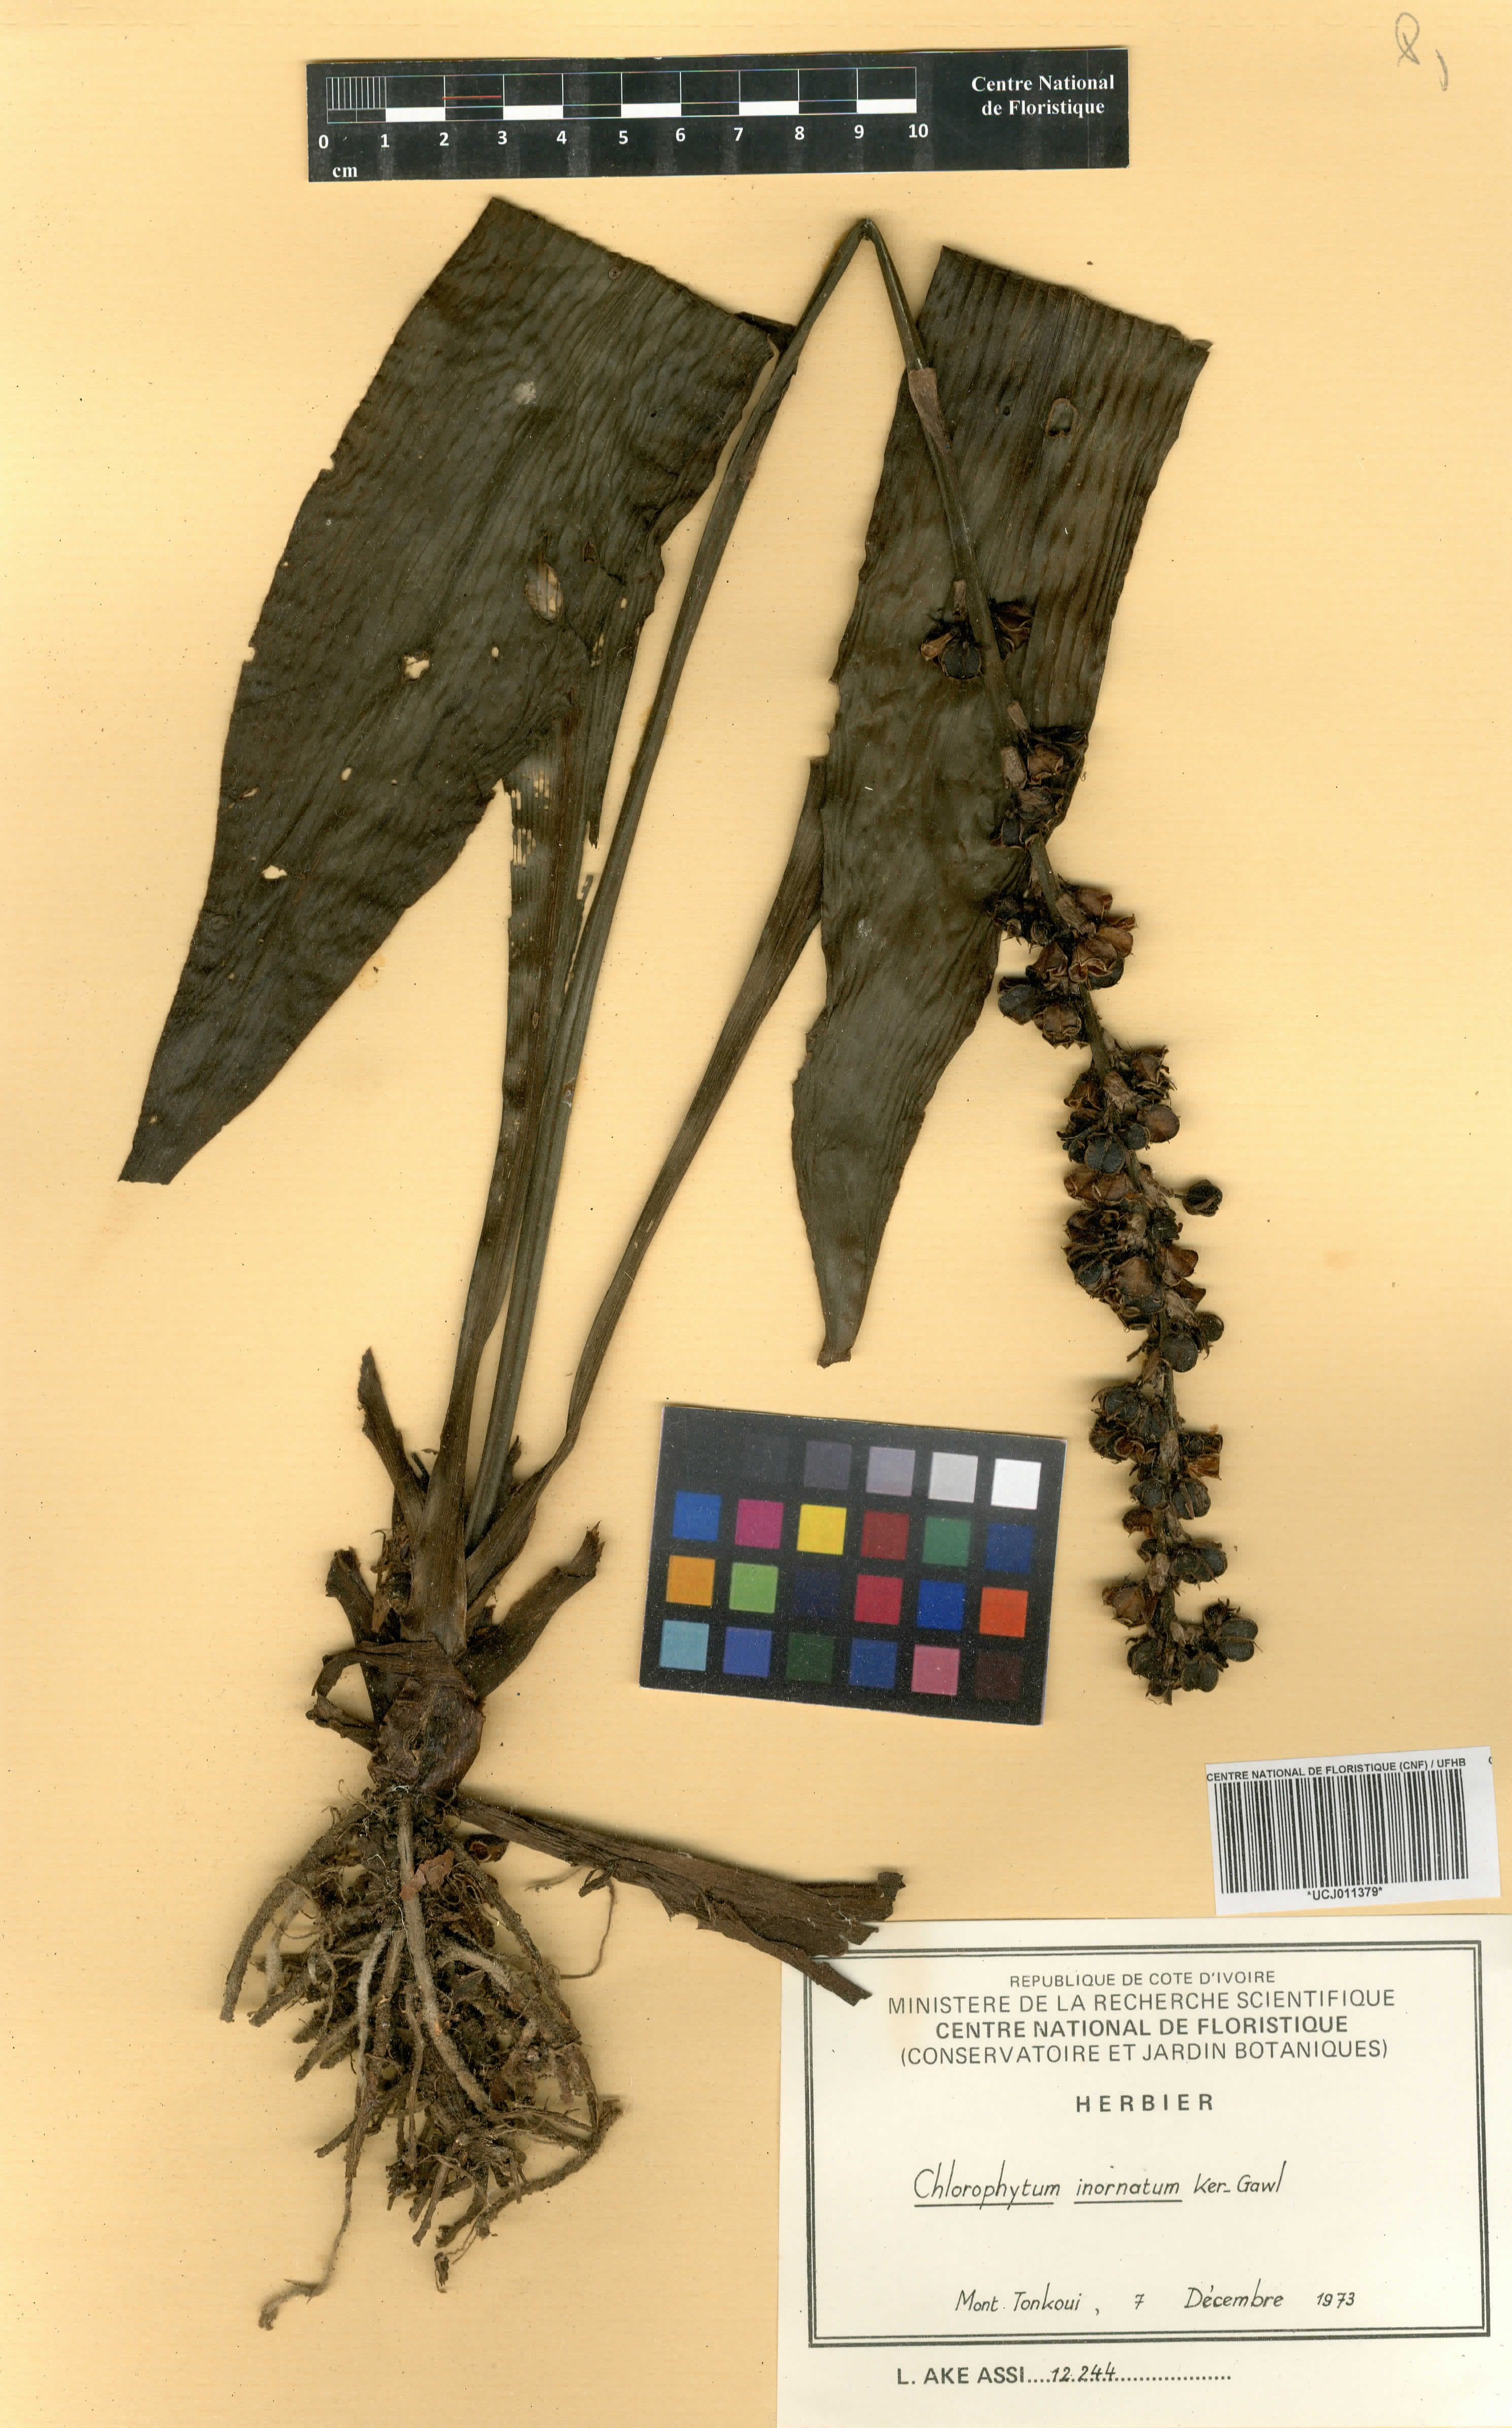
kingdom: Plantae
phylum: Tracheophyta
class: Liliopsida
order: Asparagales
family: Asparagaceae
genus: Chlorophytum
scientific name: Chlorophytum inornatum
